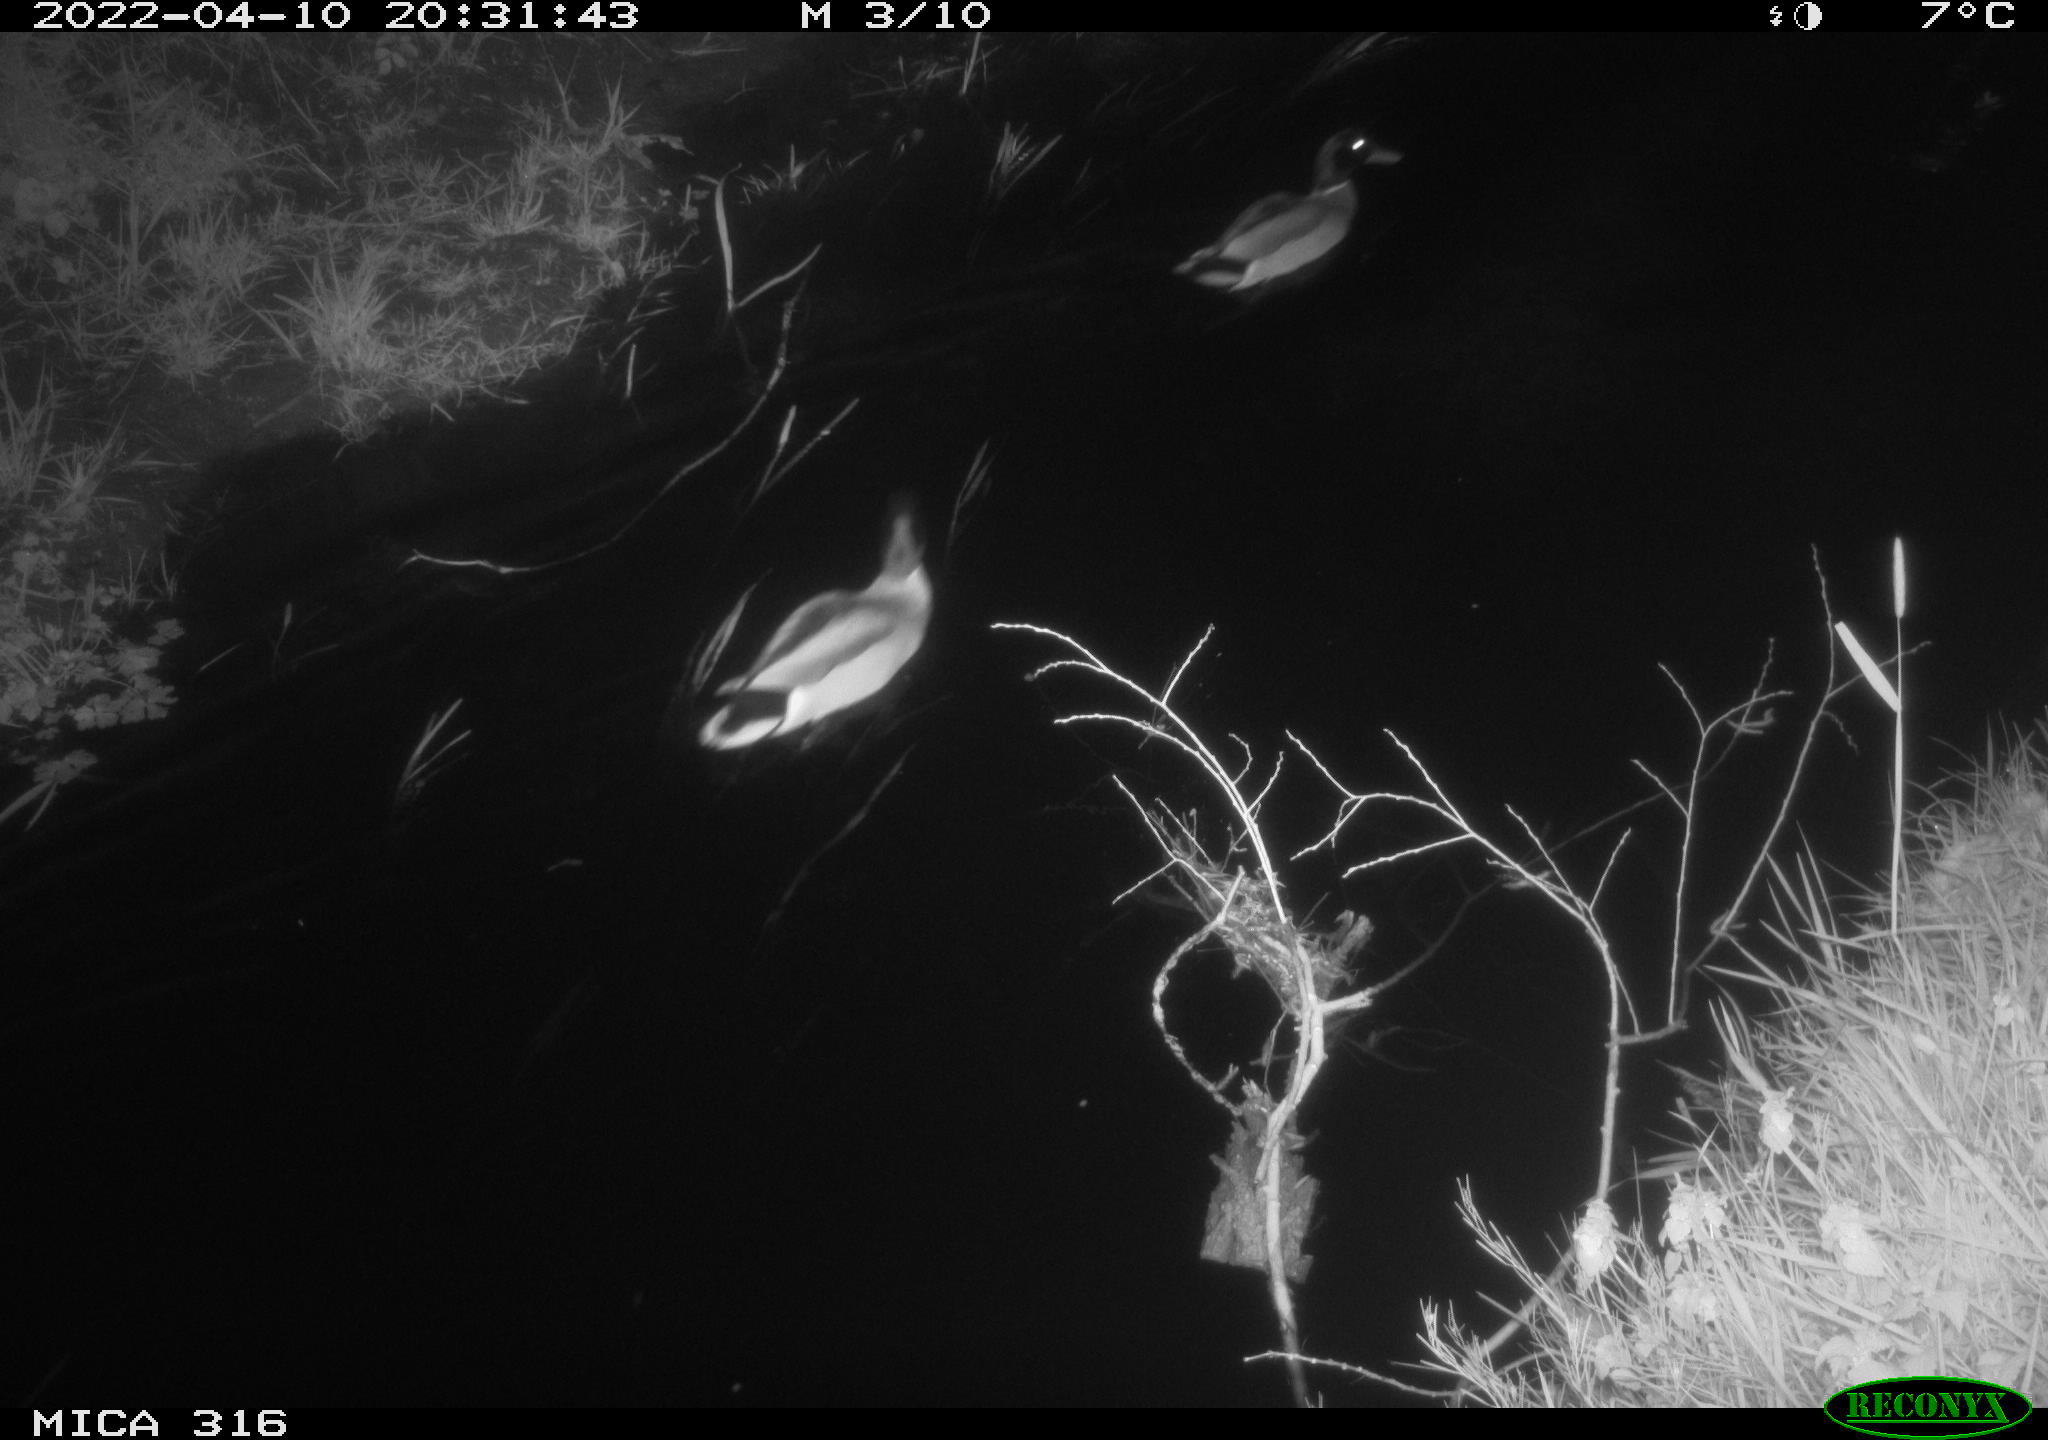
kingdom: Animalia
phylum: Chordata
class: Aves
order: Anseriformes
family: Anatidae
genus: Anas
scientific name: Anas platyrhynchos
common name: Mallard
